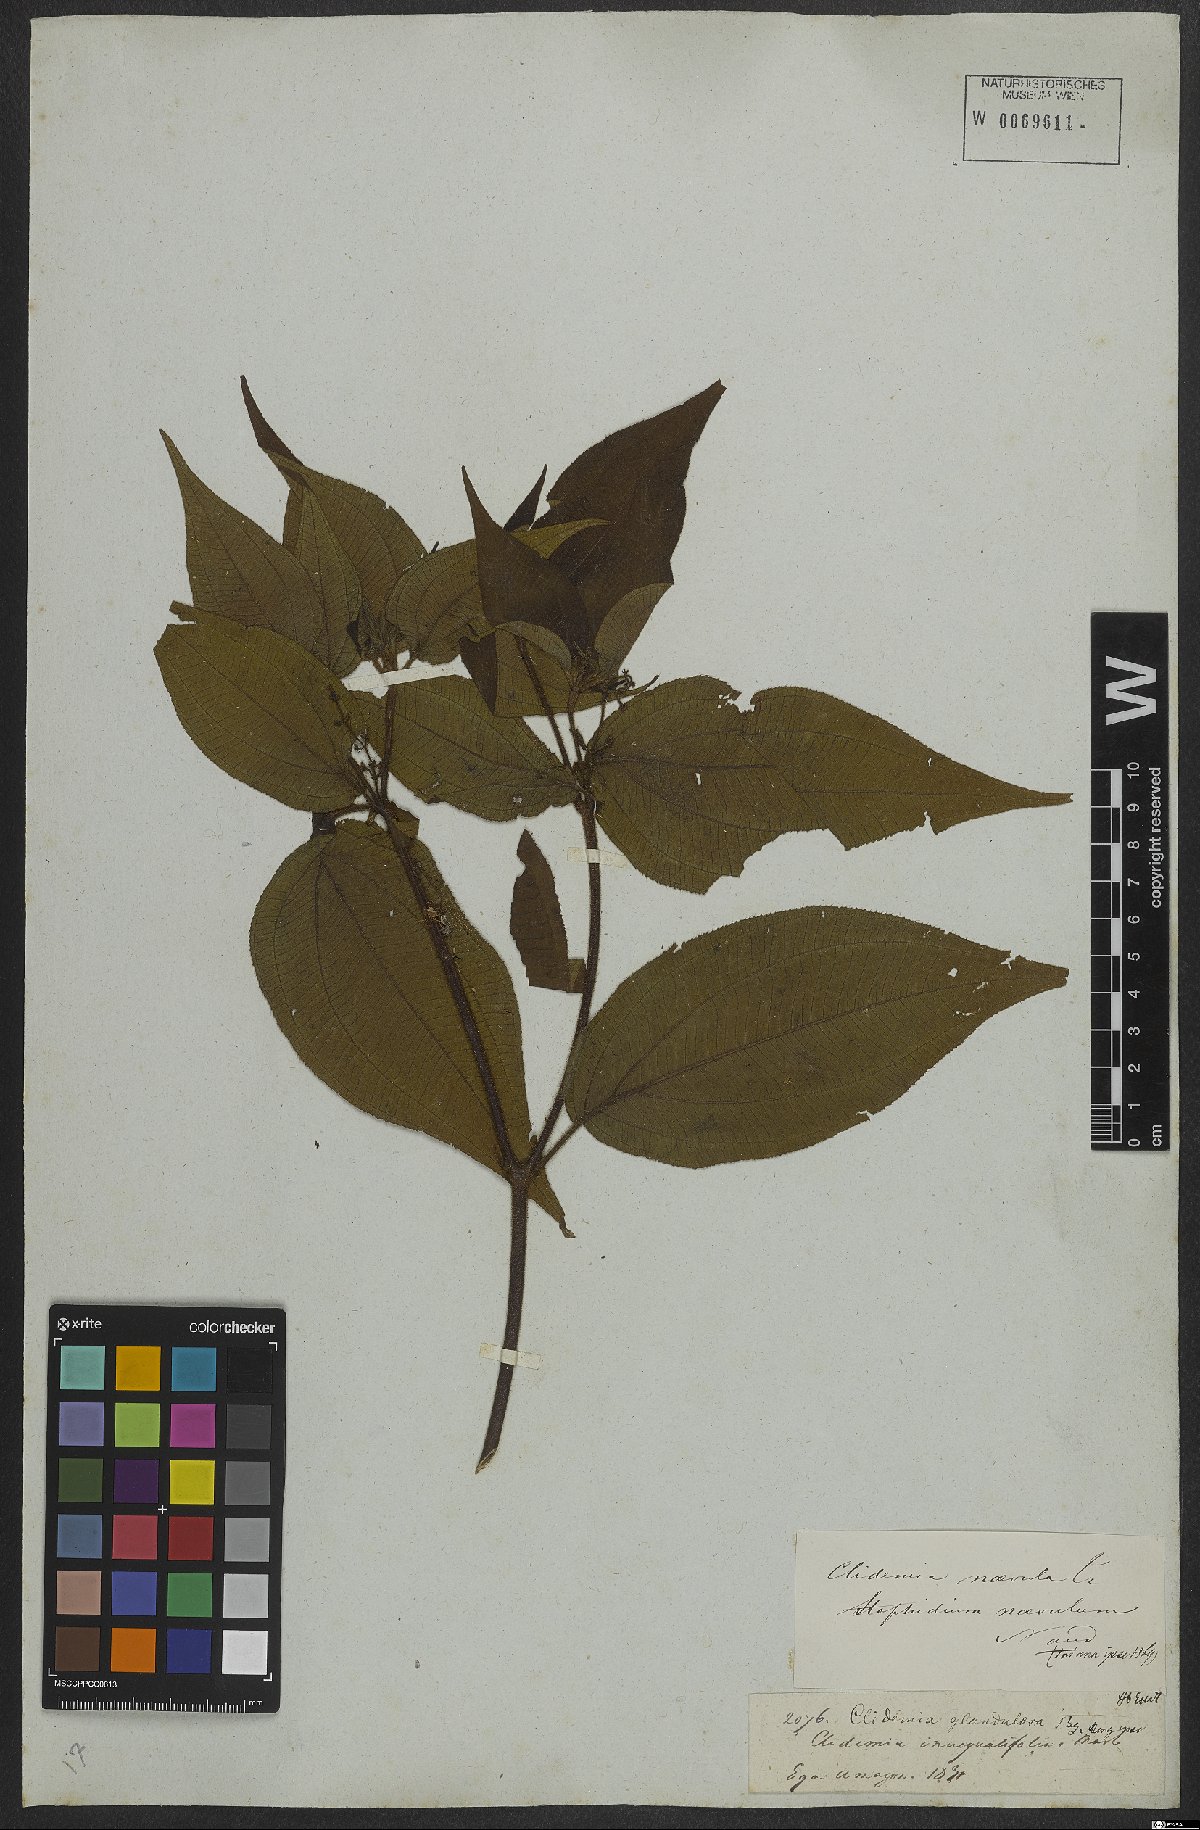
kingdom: Plantae
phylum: Tracheophyta
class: Magnoliopsida
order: Myrtales
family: Melastomataceae
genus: Miconia
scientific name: Miconia heteroclita
